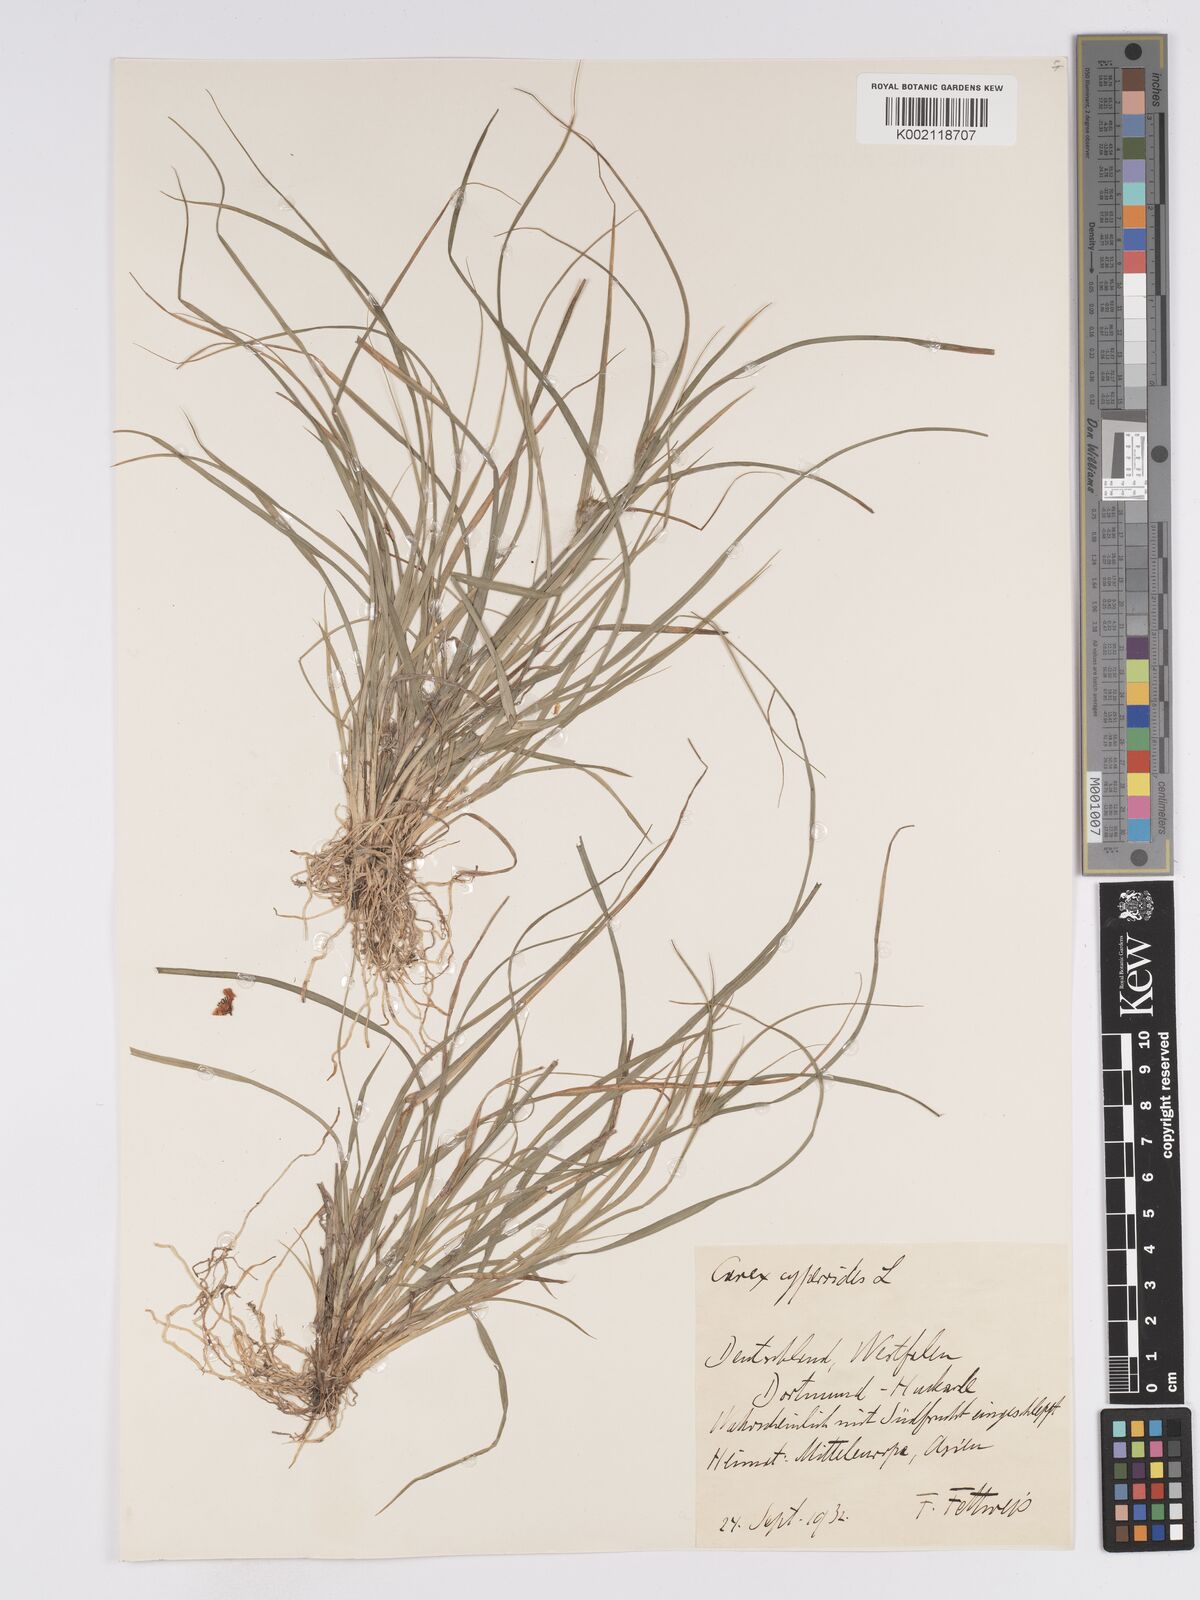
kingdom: Plantae
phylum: Tracheophyta
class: Liliopsida
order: Poales
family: Cyperaceae
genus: Carex
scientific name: Carex bohemica
